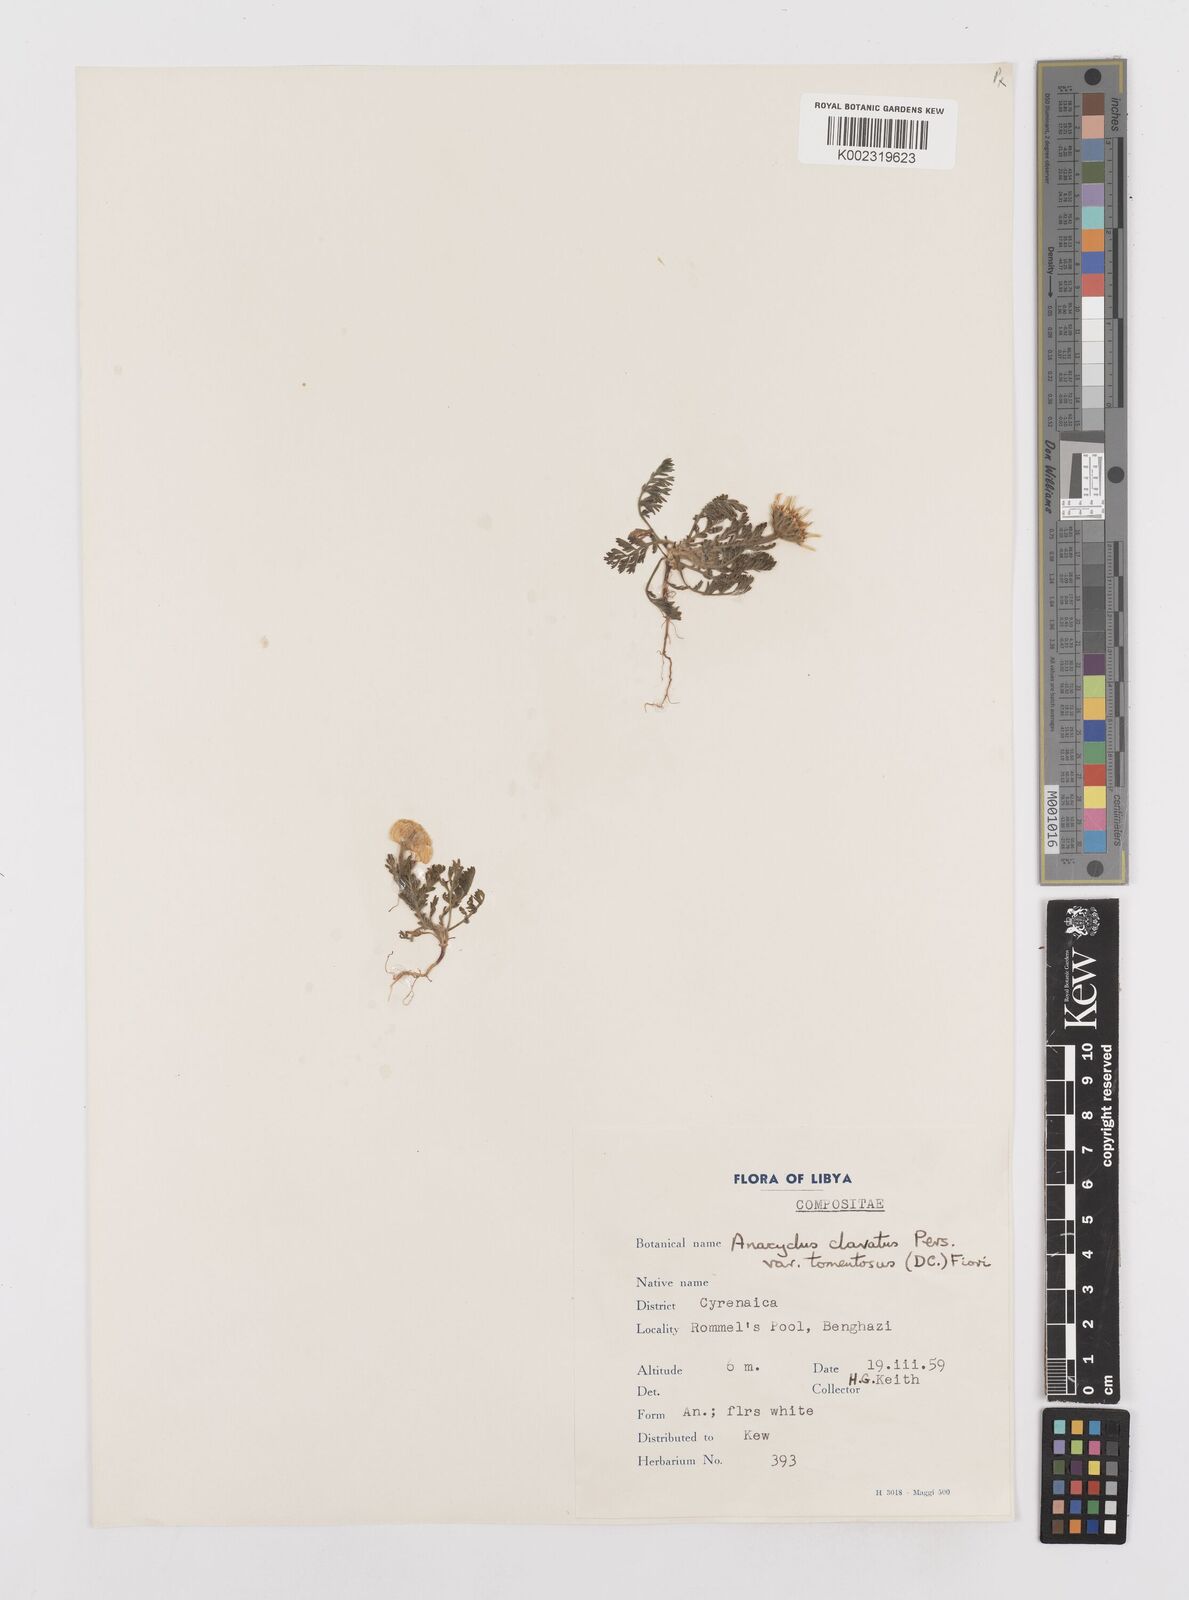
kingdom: Plantae
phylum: Tracheophyta
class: Magnoliopsida
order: Asterales
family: Asteraceae
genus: Anacyclus
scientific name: Anacyclus clavatus
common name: Whitebuttons
